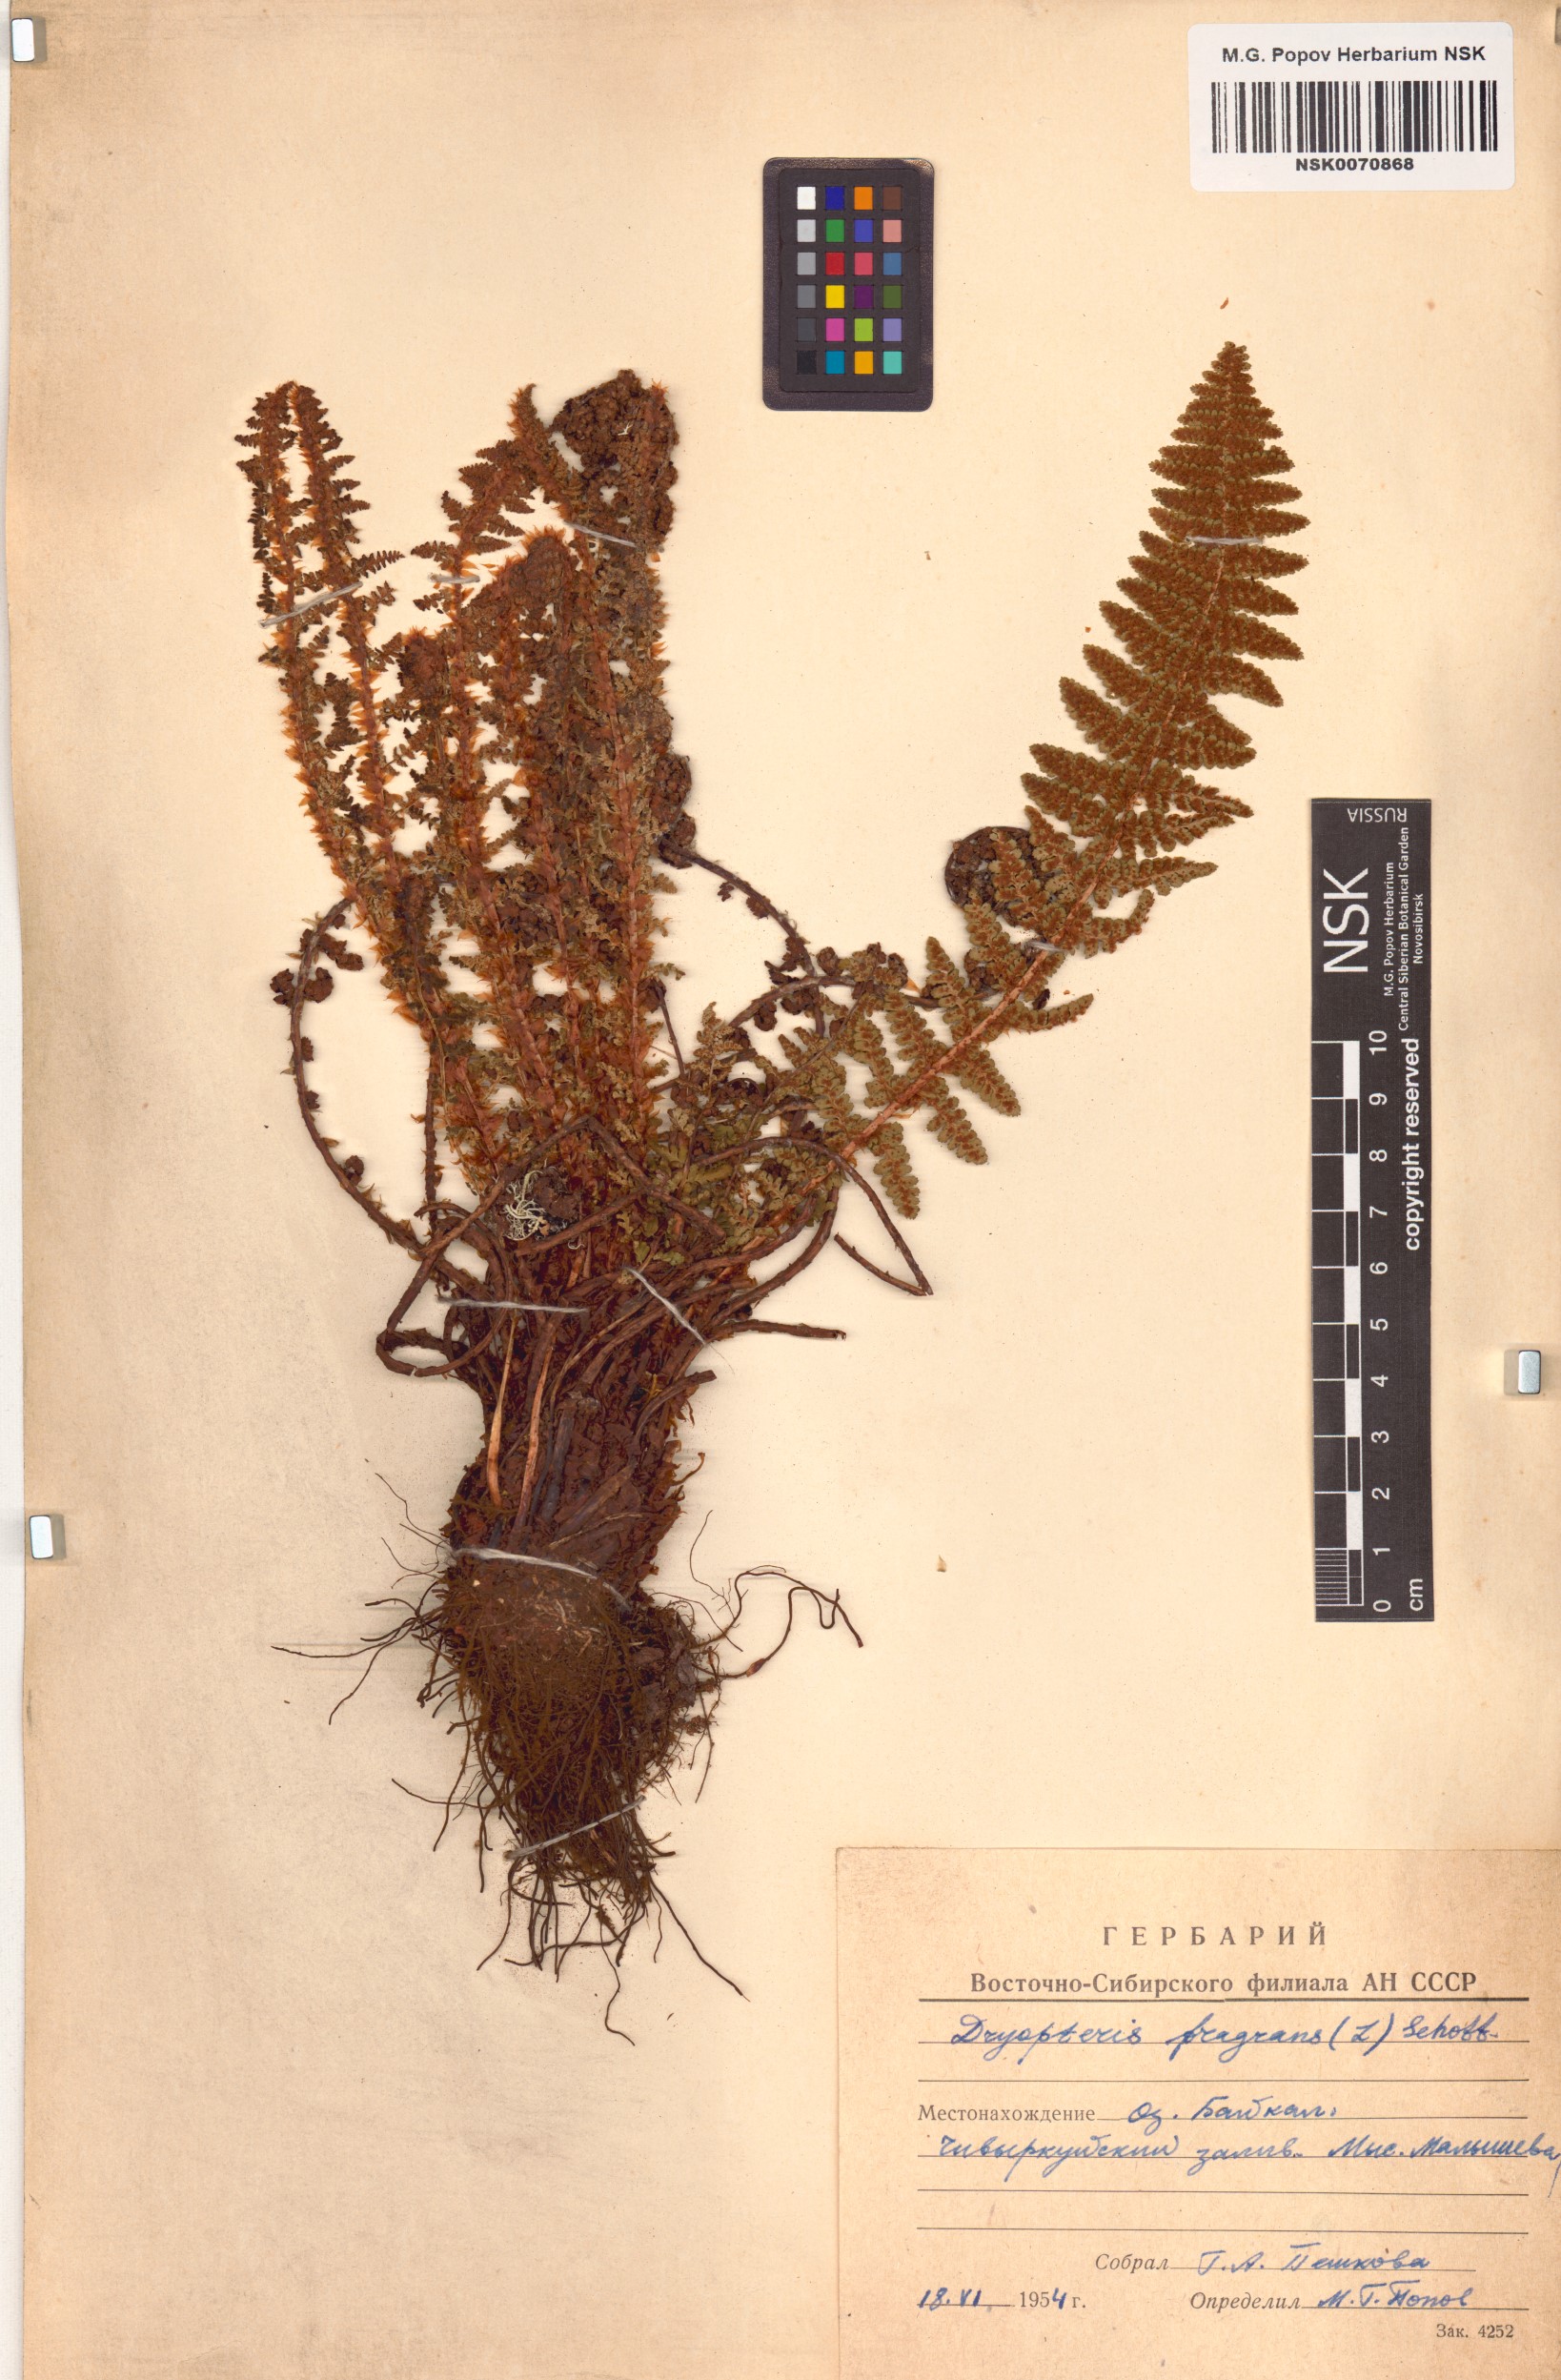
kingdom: Plantae
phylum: Tracheophyta
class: Polypodiopsida
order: Polypodiales
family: Dryopteridaceae
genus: Dryopteris
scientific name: Dryopteris fragrans
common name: Fragrant wood fern
